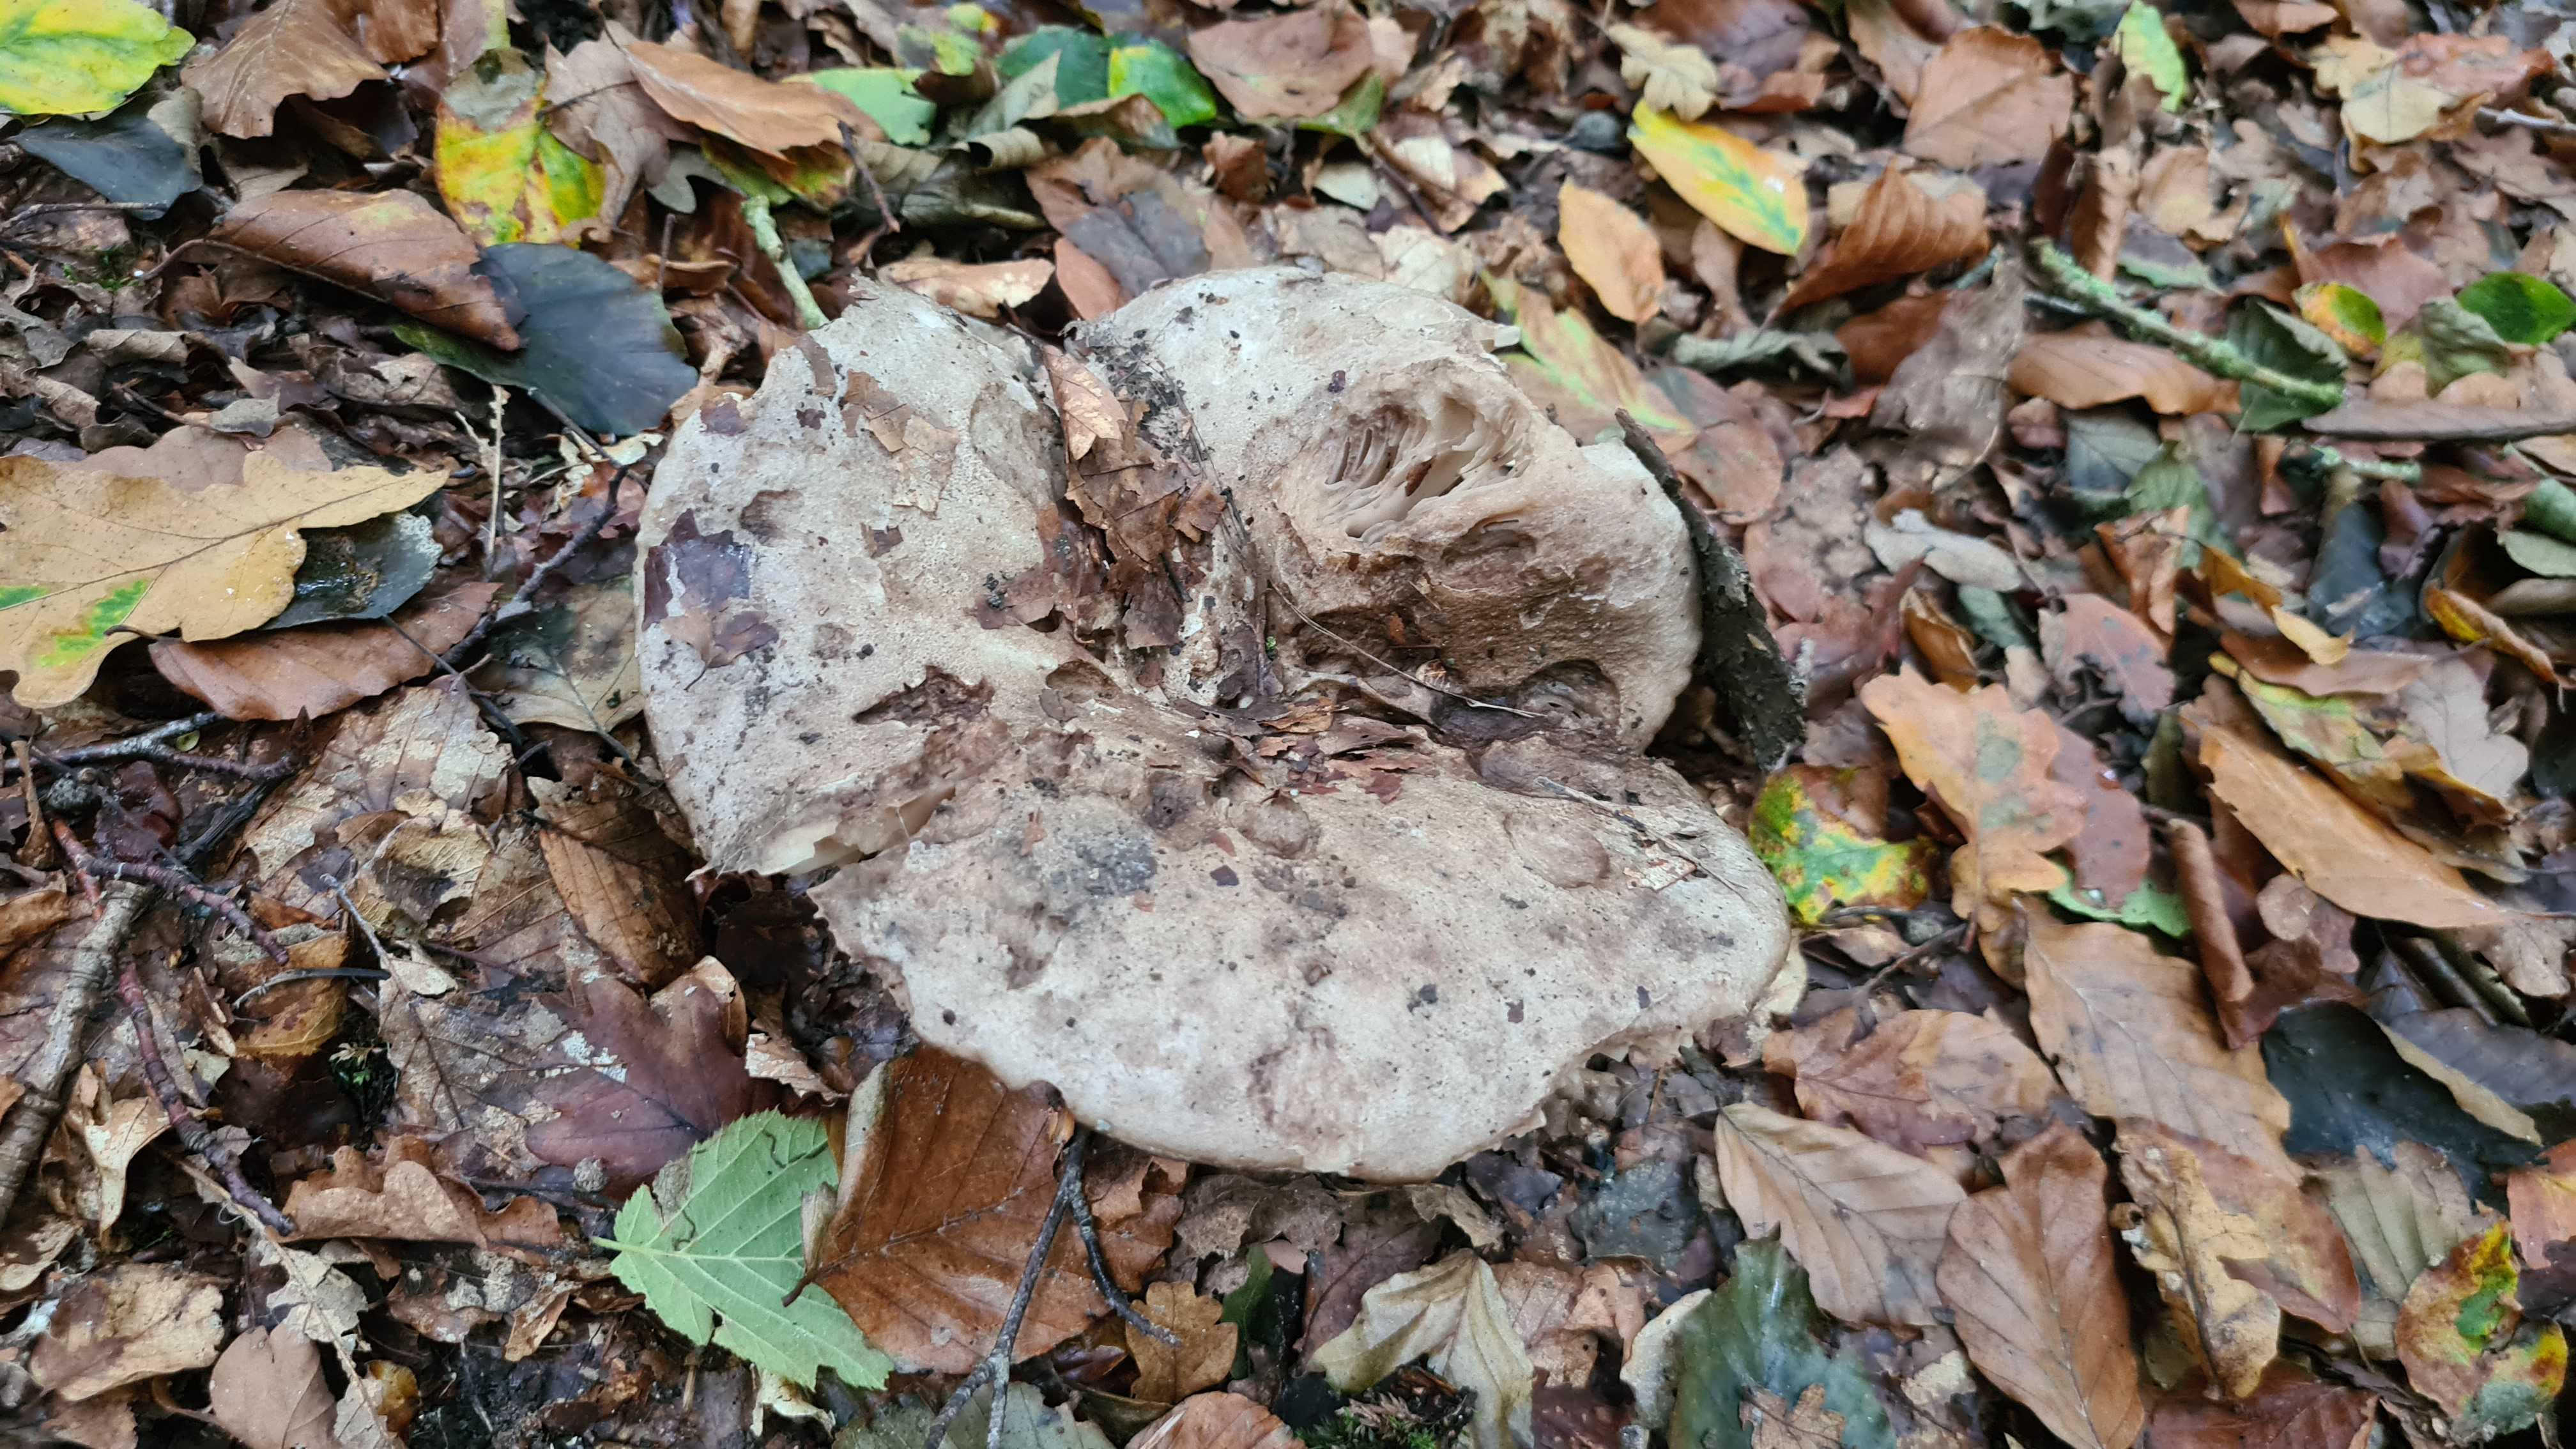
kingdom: Fungi
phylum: Basidiomycota
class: Agaricomycetes
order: Russulales
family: Russulaceae
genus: Russula
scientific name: Russula adusta
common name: sværtende skørhat
